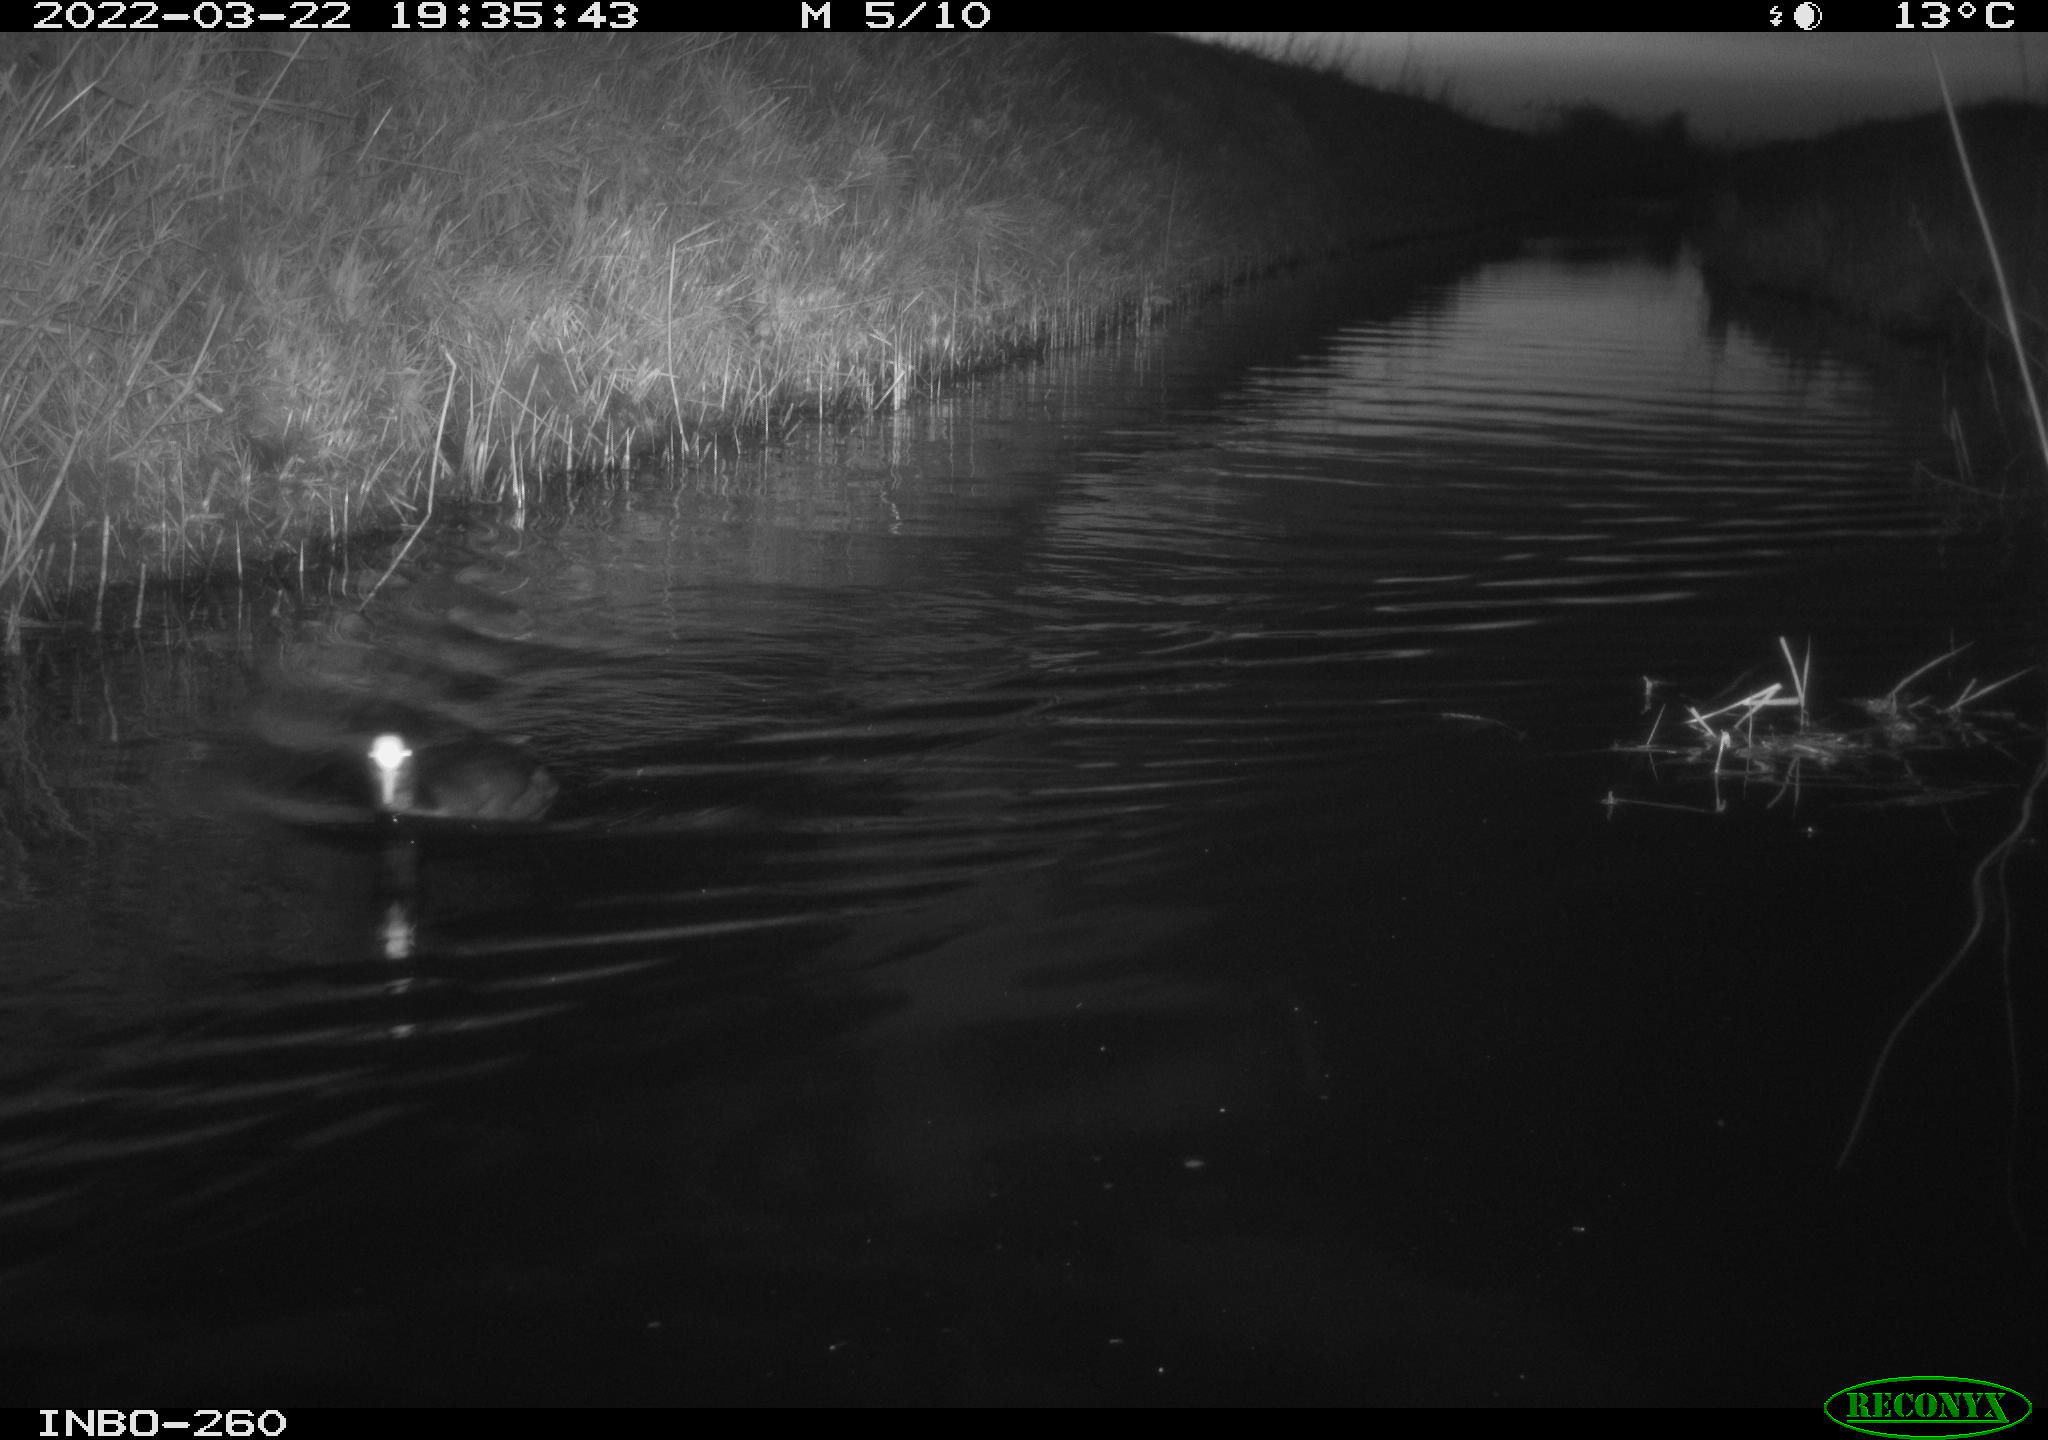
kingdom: Animalia
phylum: Chordata
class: Aves
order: Gruiformes
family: Rallidae
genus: Fulica
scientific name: Fulica atra
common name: Eurasian coot
